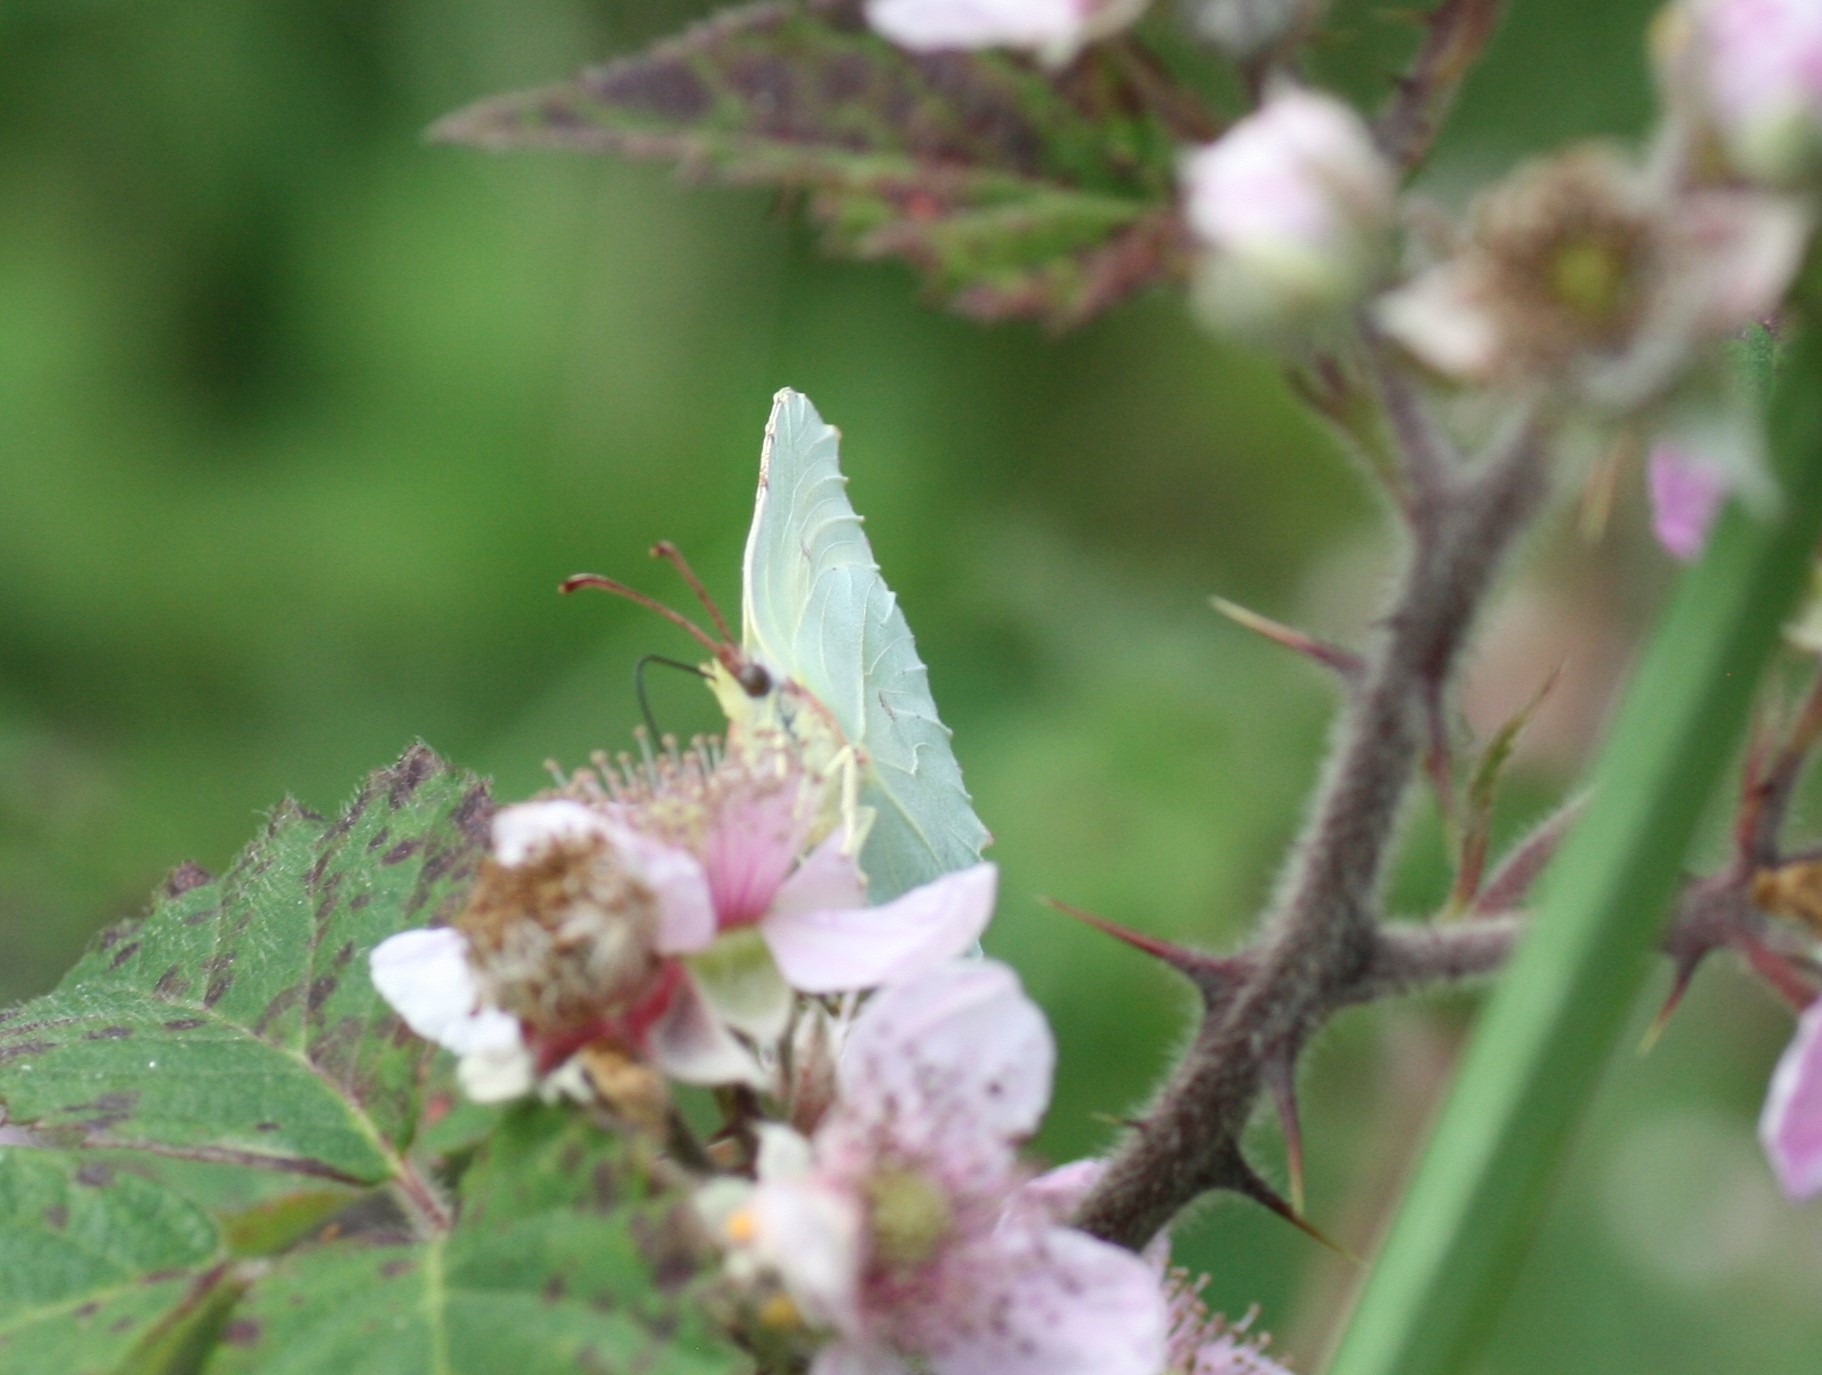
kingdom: Animalia
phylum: Arthropoda
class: Insecta
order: Lepidoptera
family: Pieridae
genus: Gonepteryx
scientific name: Gonepteryx rhamni
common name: Citronsommerfugl
